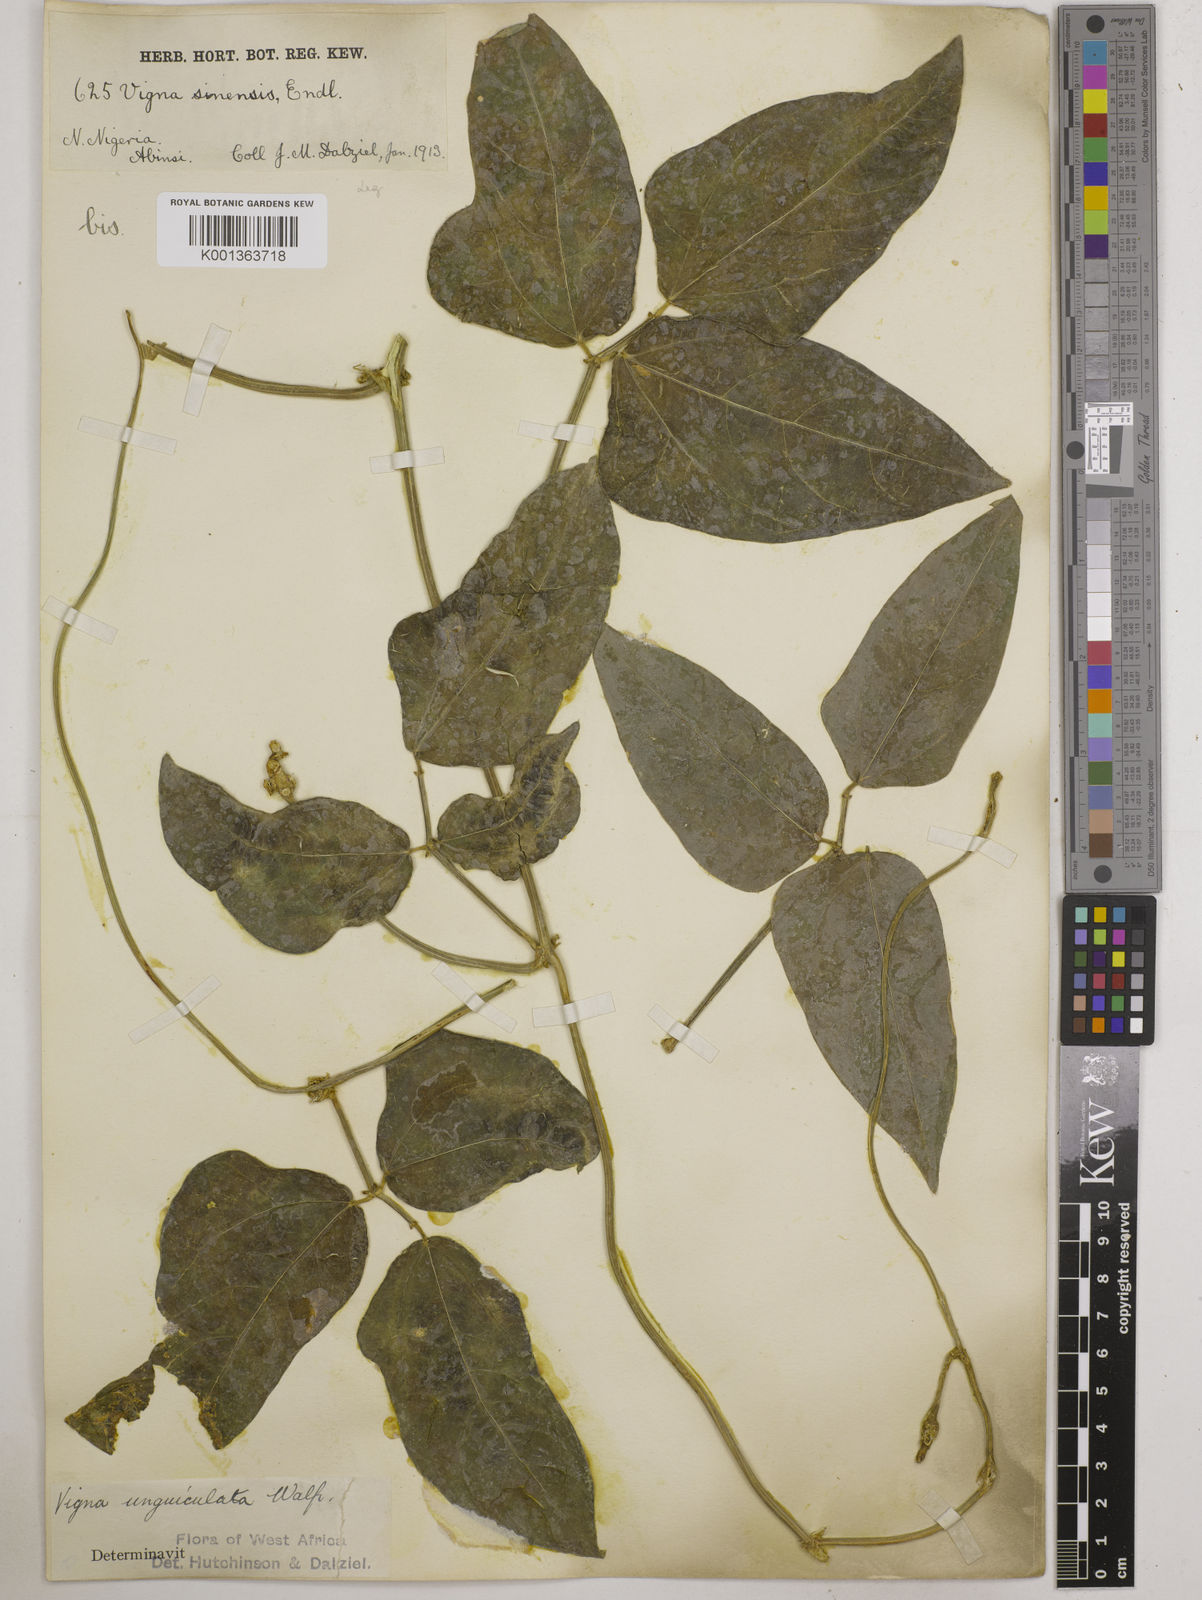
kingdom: Plantae
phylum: Tracheophyta
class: Magnoliopsida
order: Fabales
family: Fabaceae
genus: Vigna
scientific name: Vigna unguiculata
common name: Cowpea
